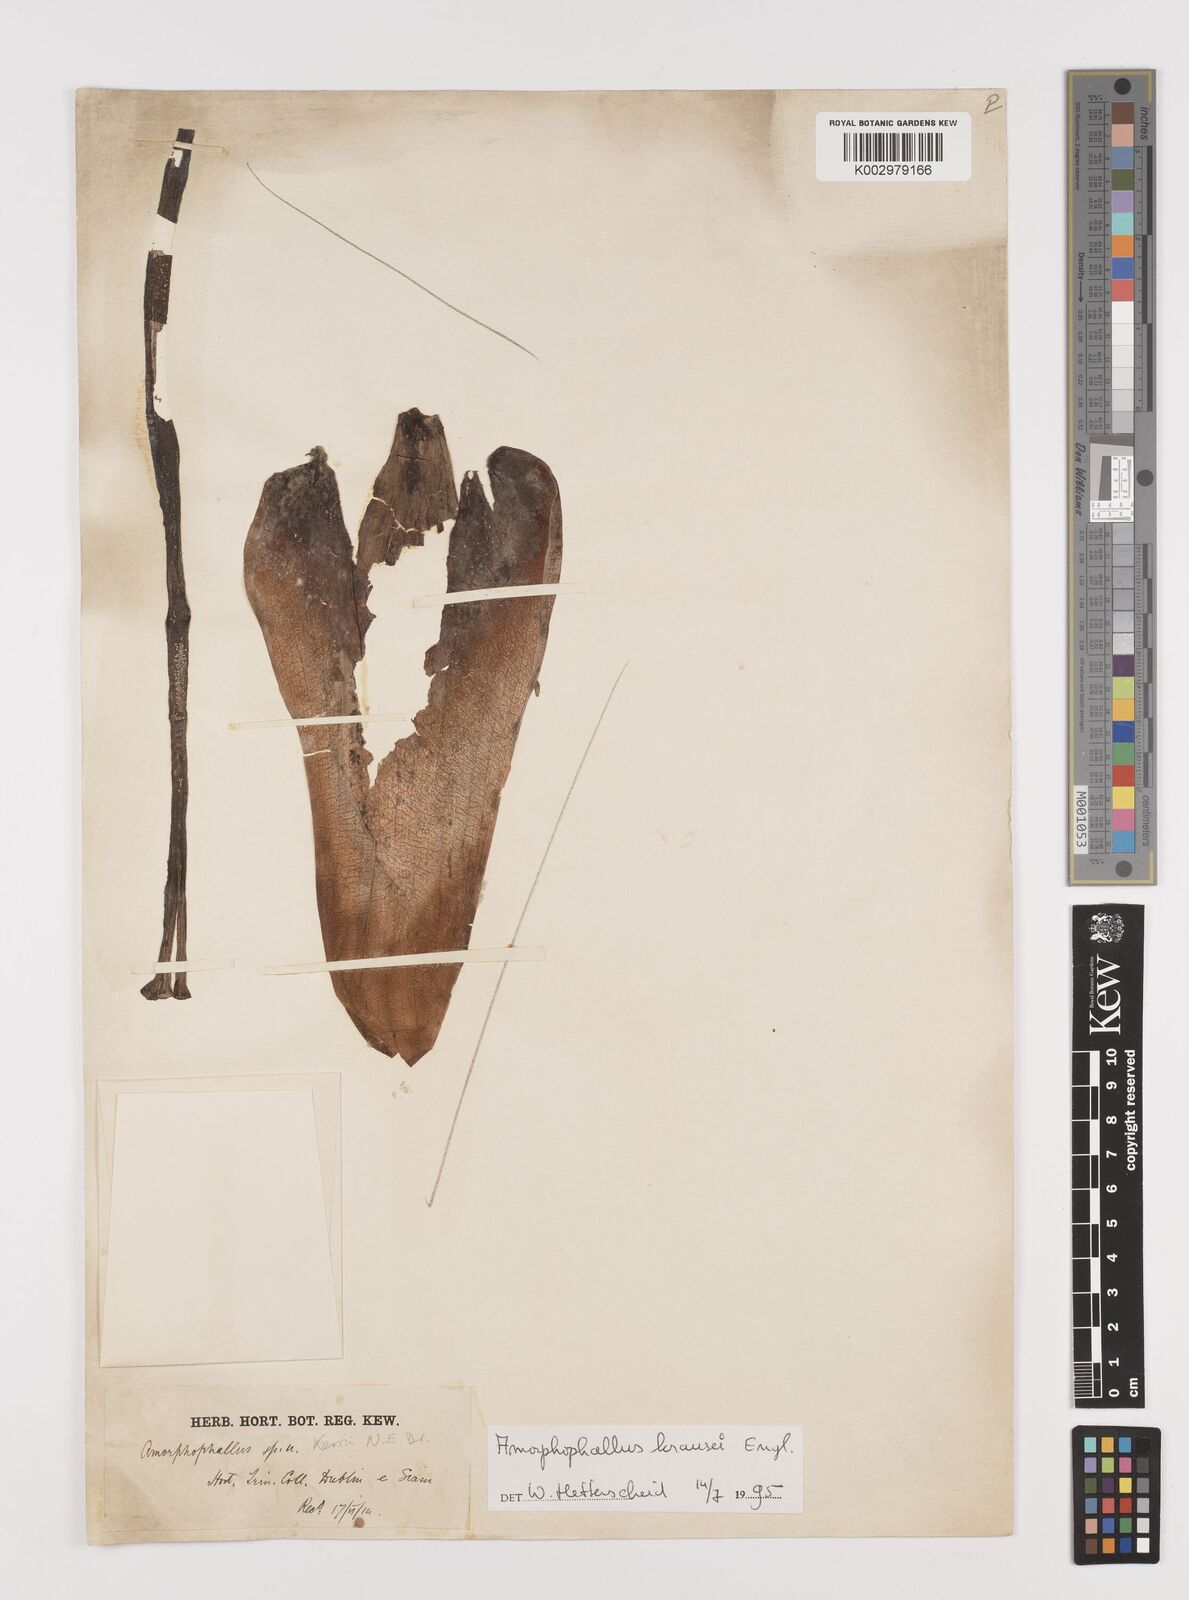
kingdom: Plantae
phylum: Tracheophyta
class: Liliopsida
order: Alismatales
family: Araceae
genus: Amorphophallus
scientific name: Amorphophallus krausei
